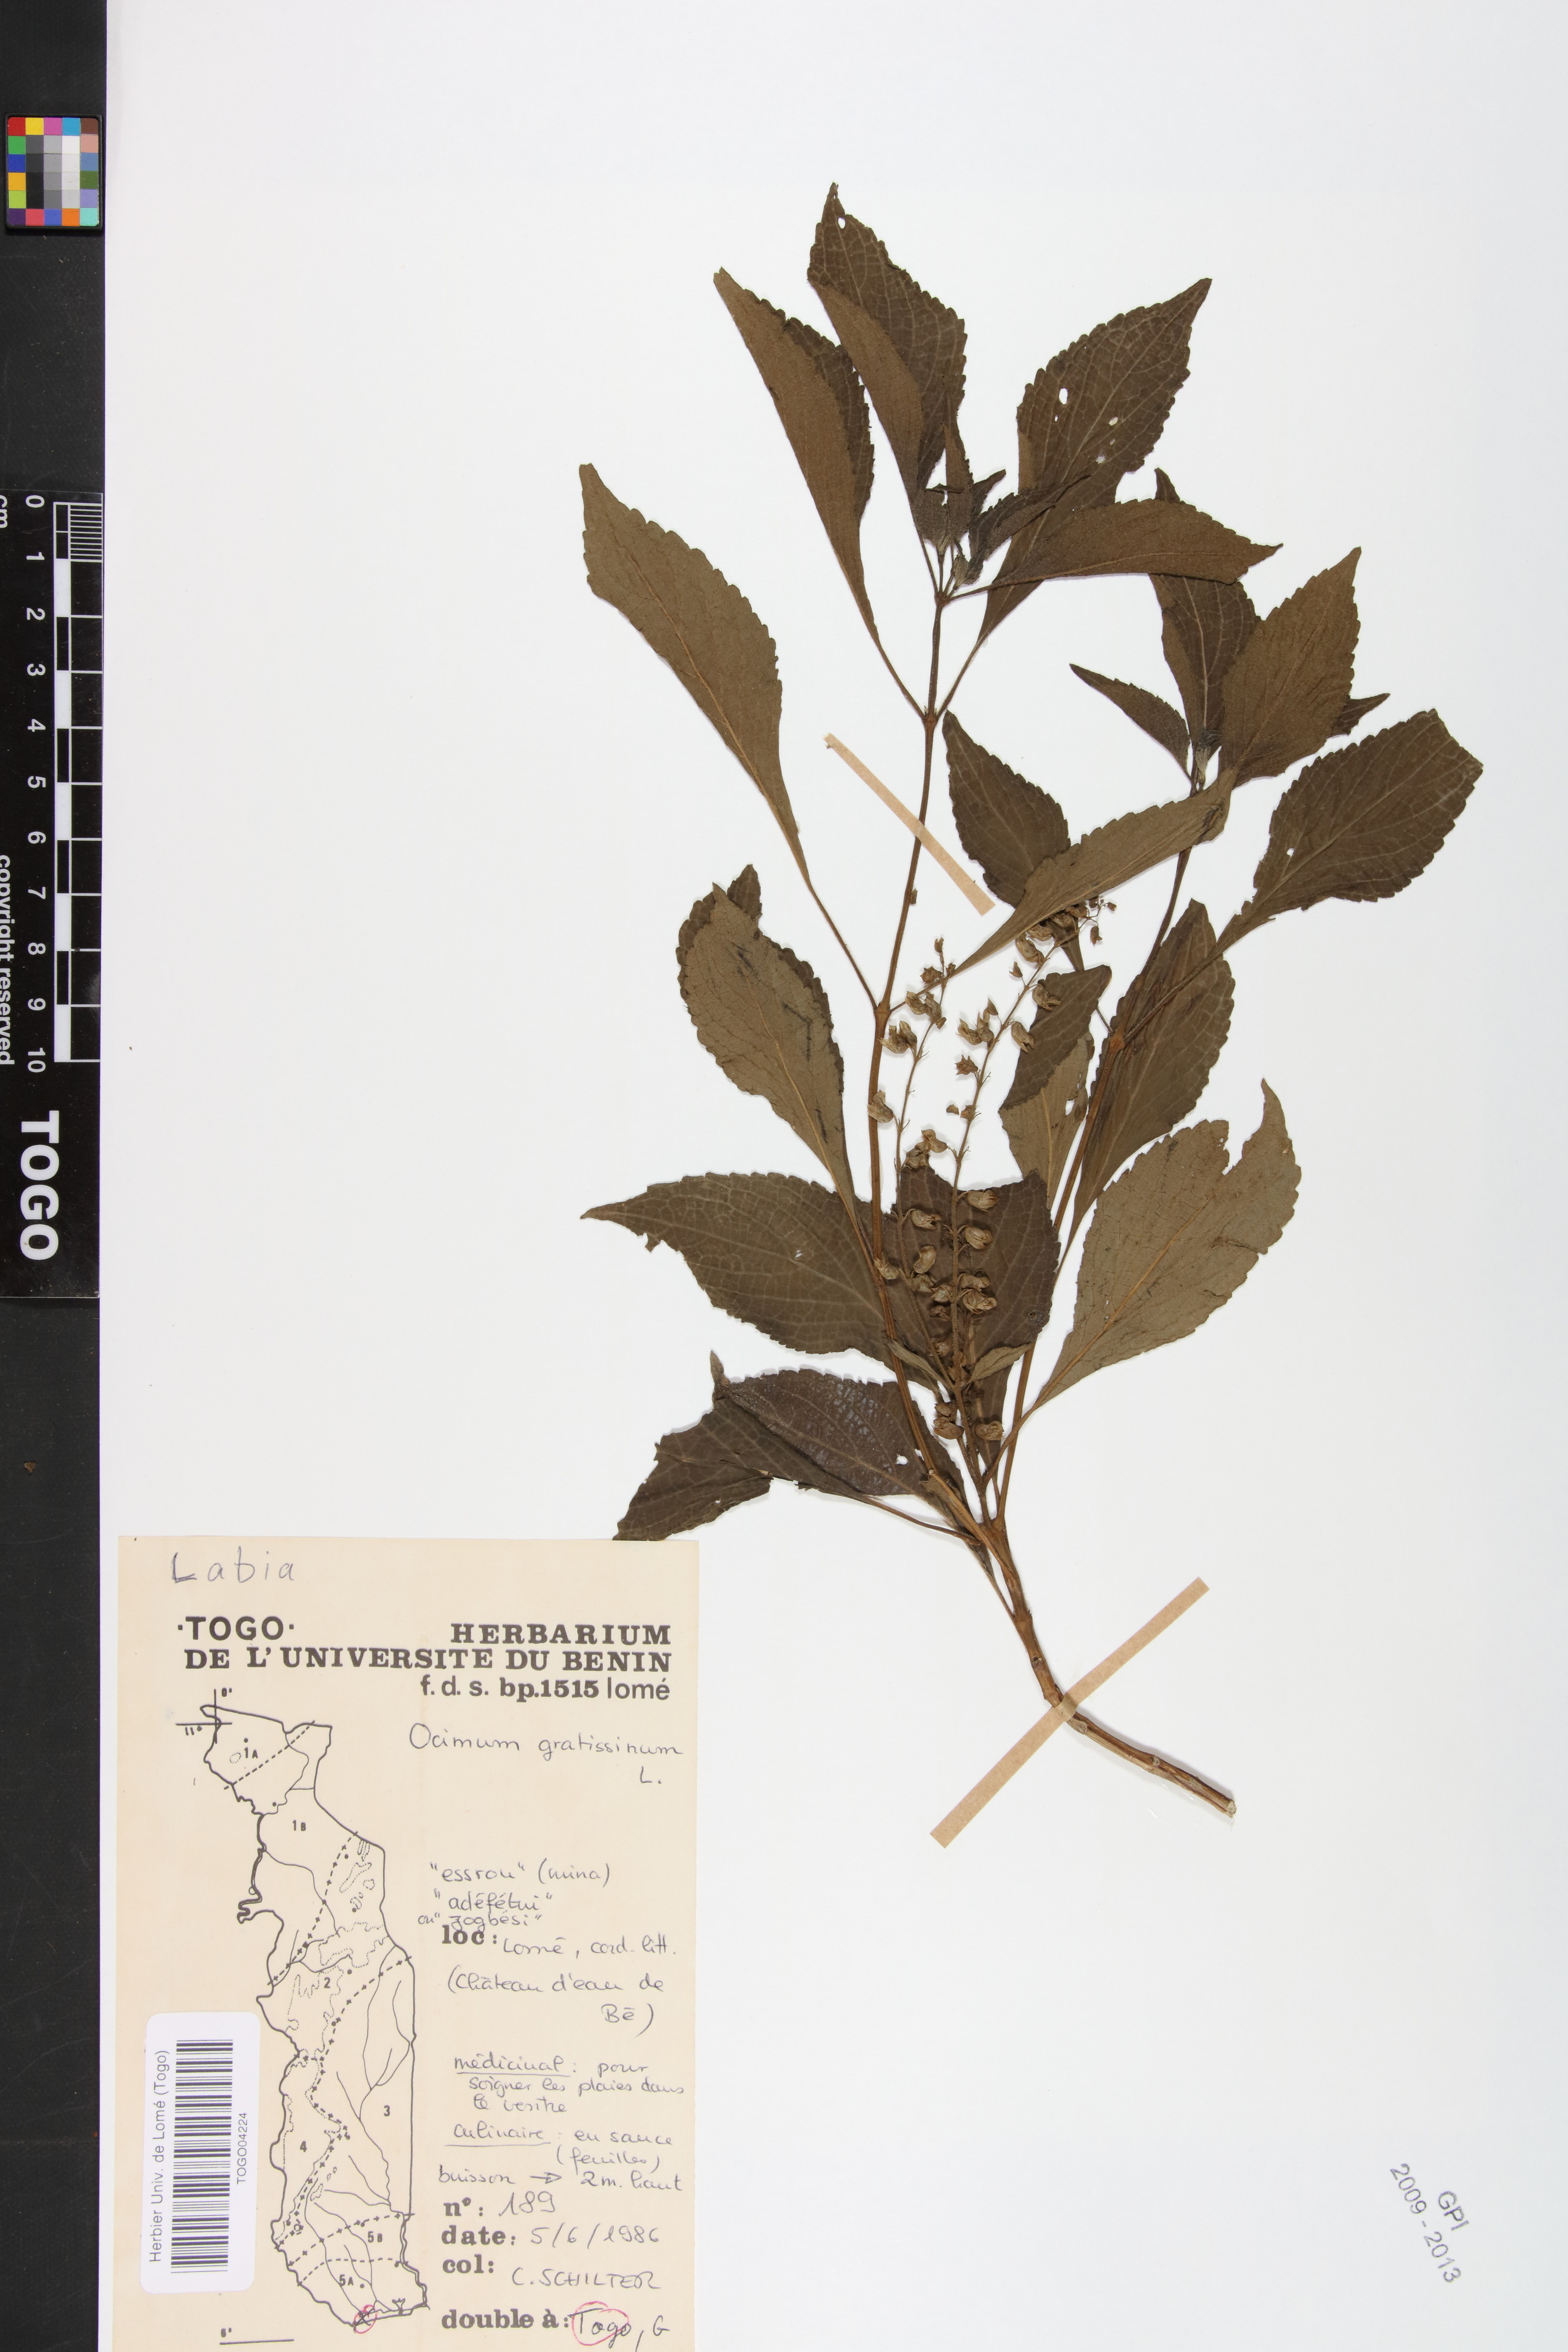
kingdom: Plantae
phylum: Tracheophyta
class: Magnoliopsida
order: Lamiales
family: Lamiaceae
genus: Ocimum
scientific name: Ocimum gratissimum
